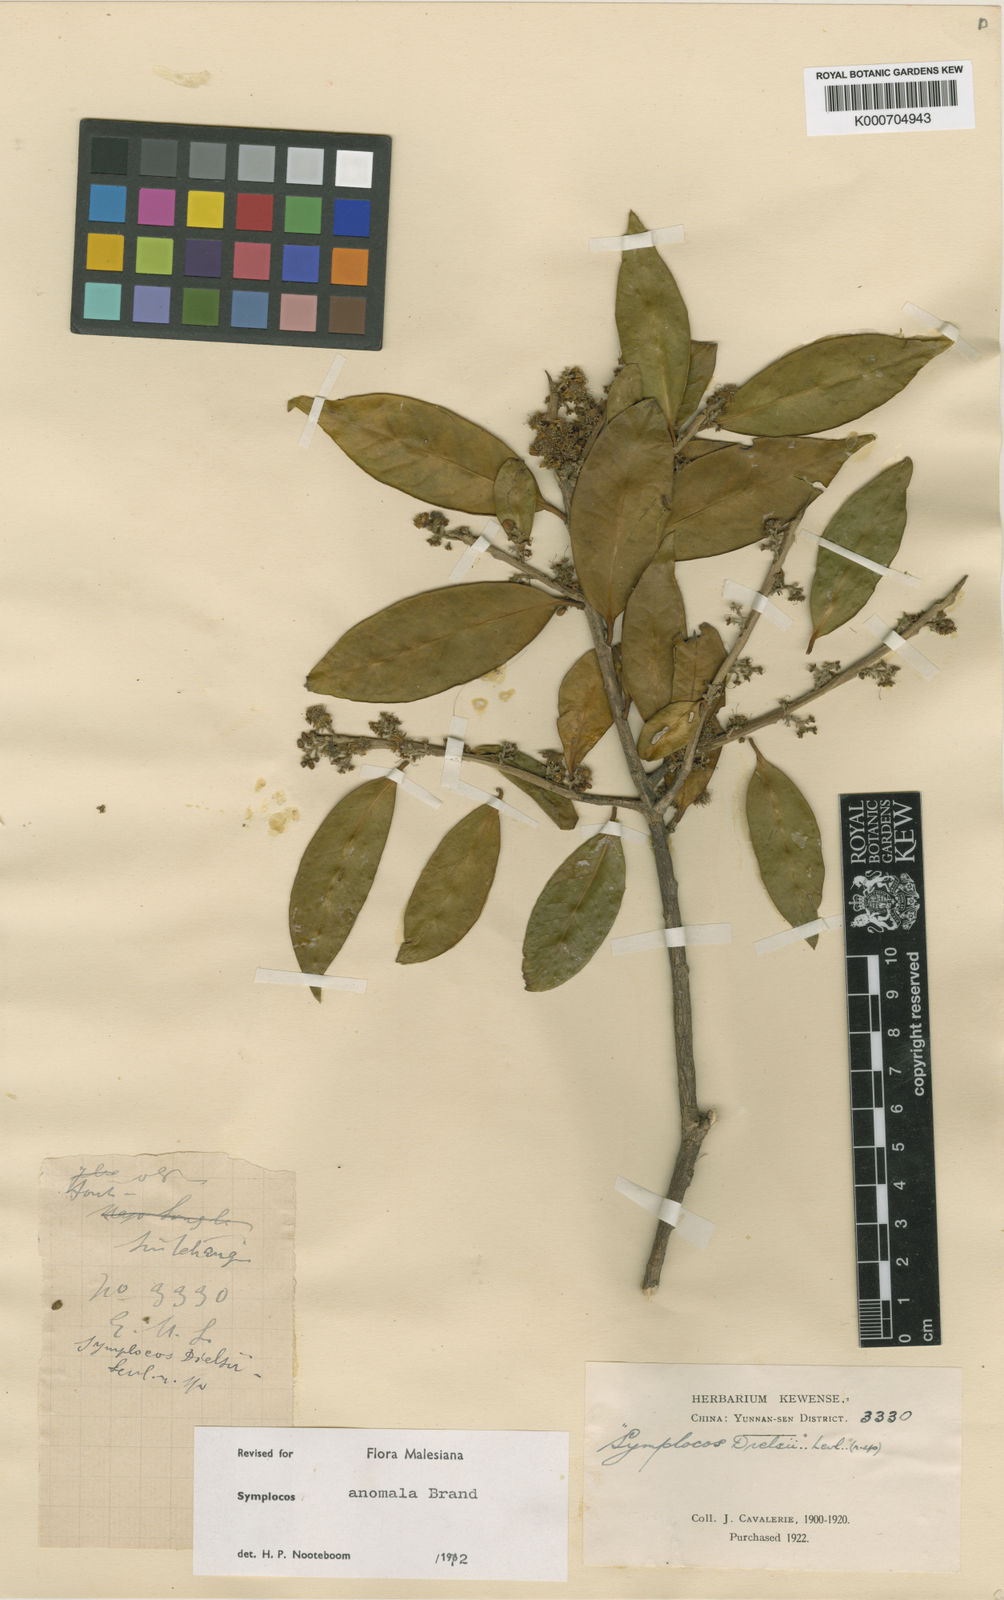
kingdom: Plantae
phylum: Tracheophyta
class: Magnoliopsida
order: Ericales
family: Symplocaceae
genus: Symplocos
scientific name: Symplocos anomala
